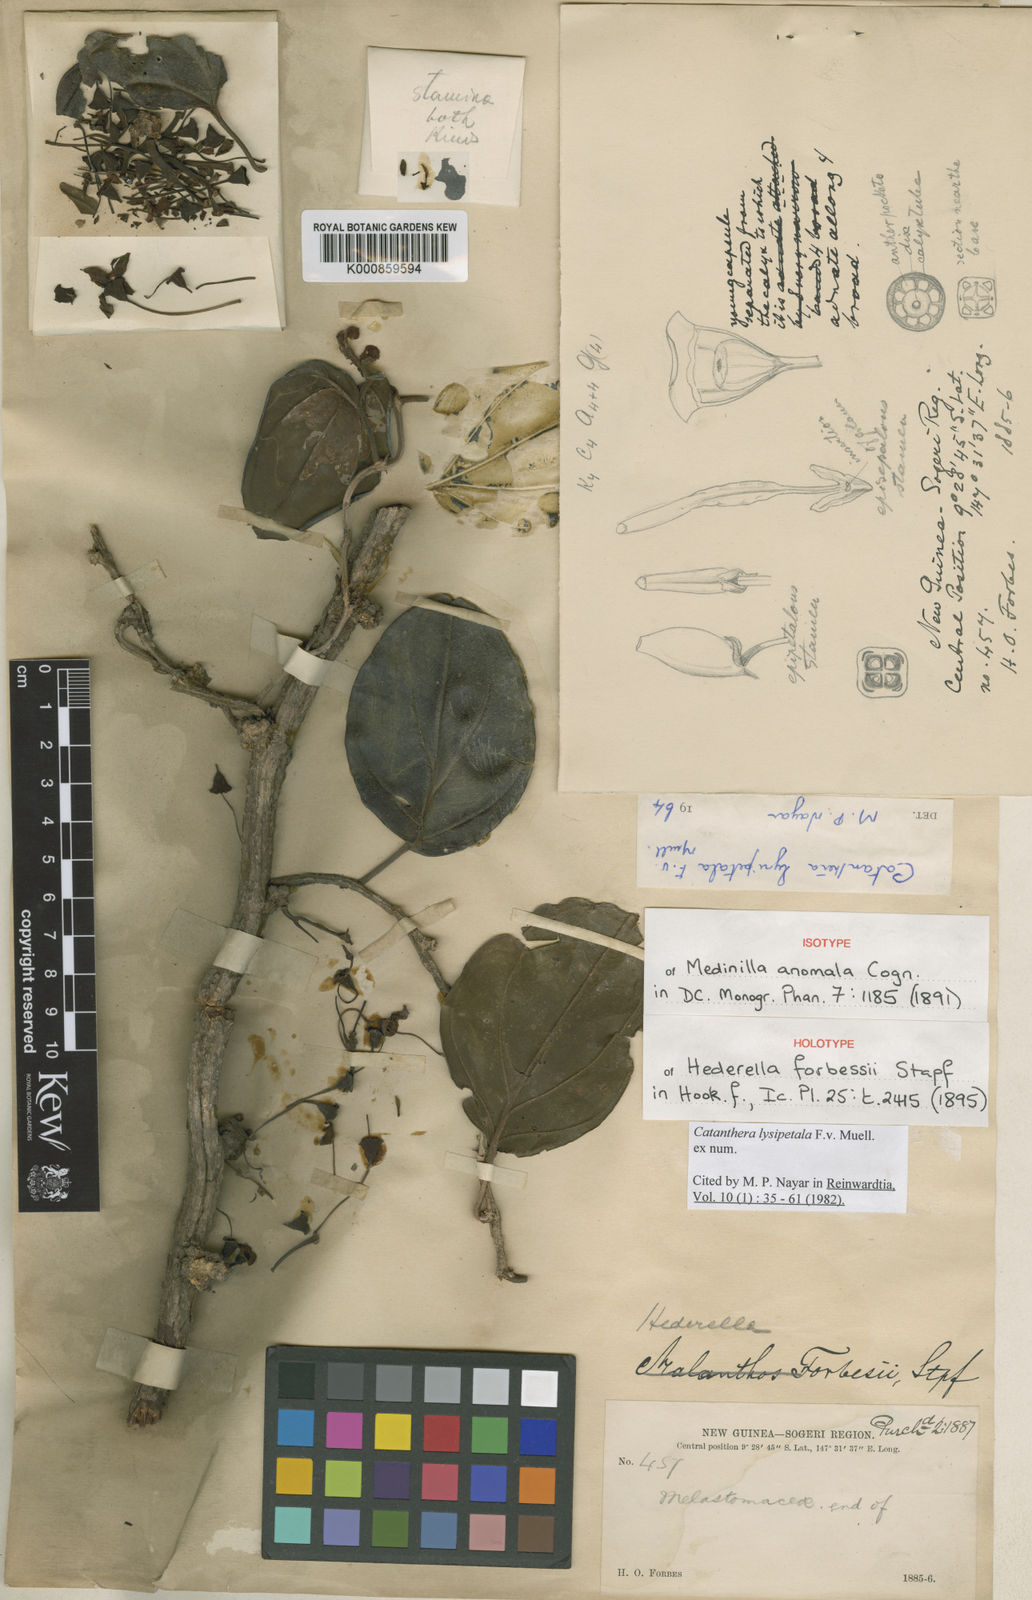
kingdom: Plantae
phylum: Tracheophyta
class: Magnoliopsida
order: Myrtales
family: Melastomataceae
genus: Catanthera
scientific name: Catanthera lysipetala
